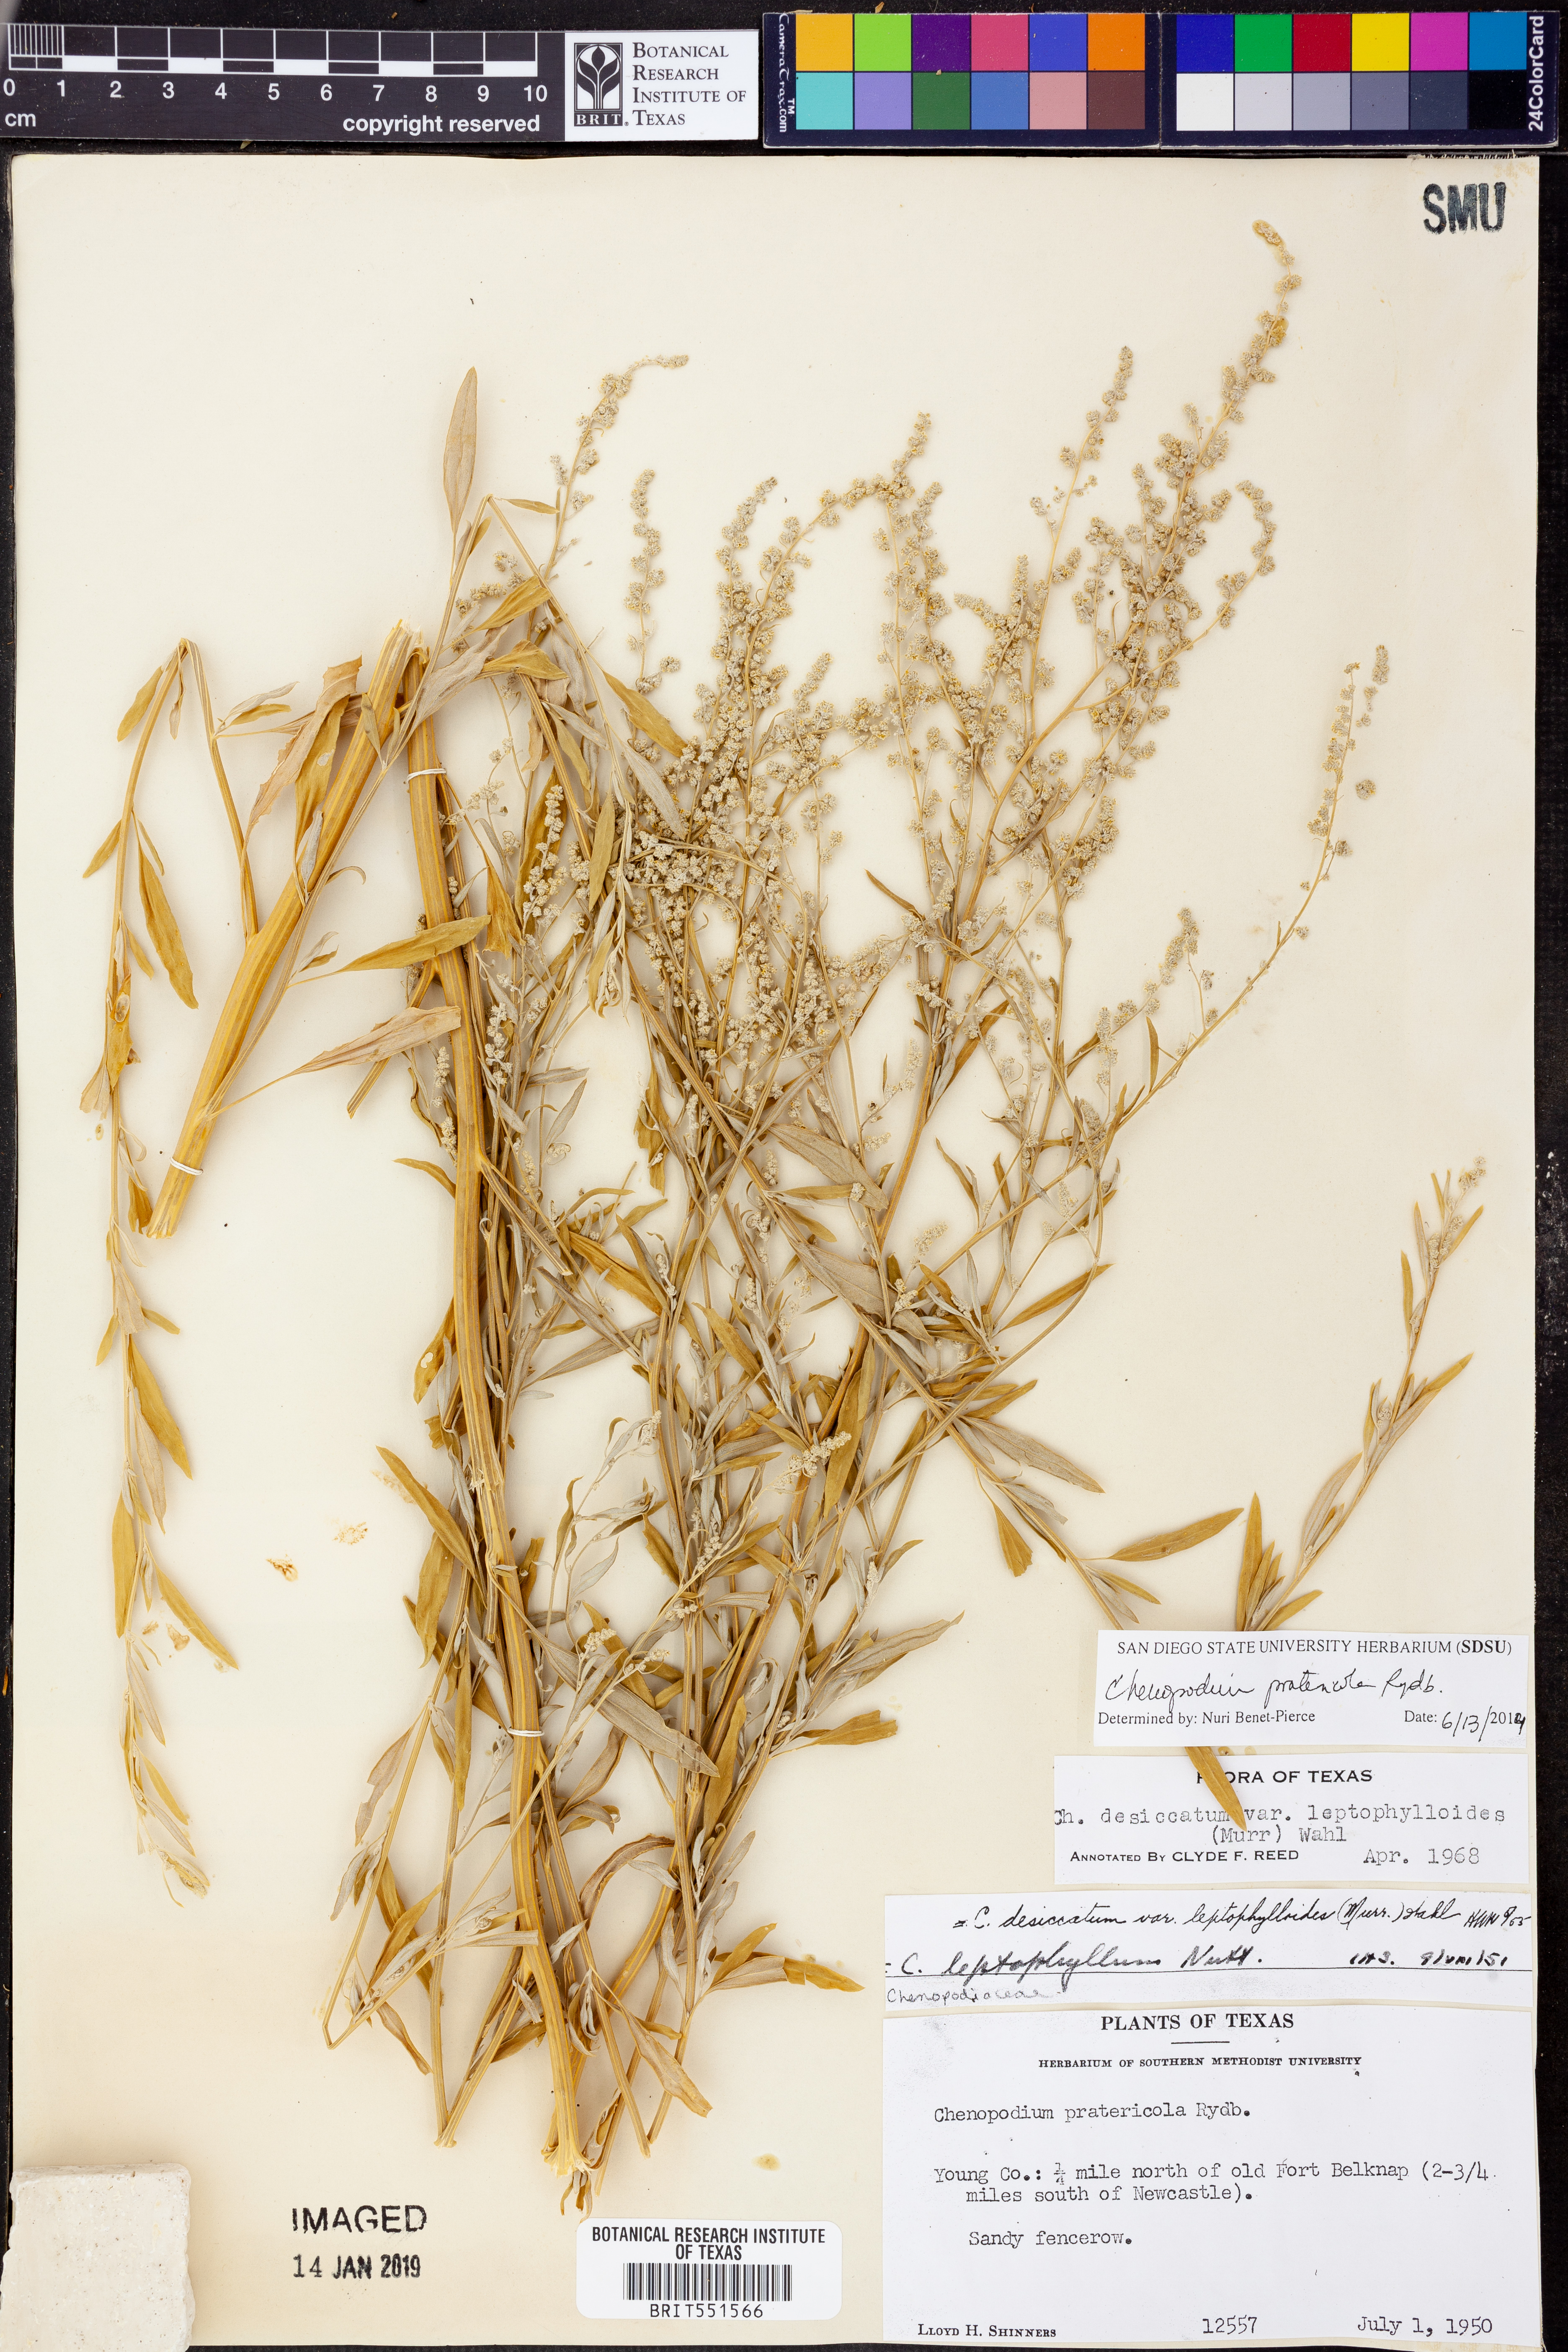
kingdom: Plantae
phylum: Tracheophyta
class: Magnoliopsida
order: Caryophyllales
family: Amaranthaceae
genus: Chenopodium
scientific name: Chenopodium pratericola
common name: Desert goosefoot
